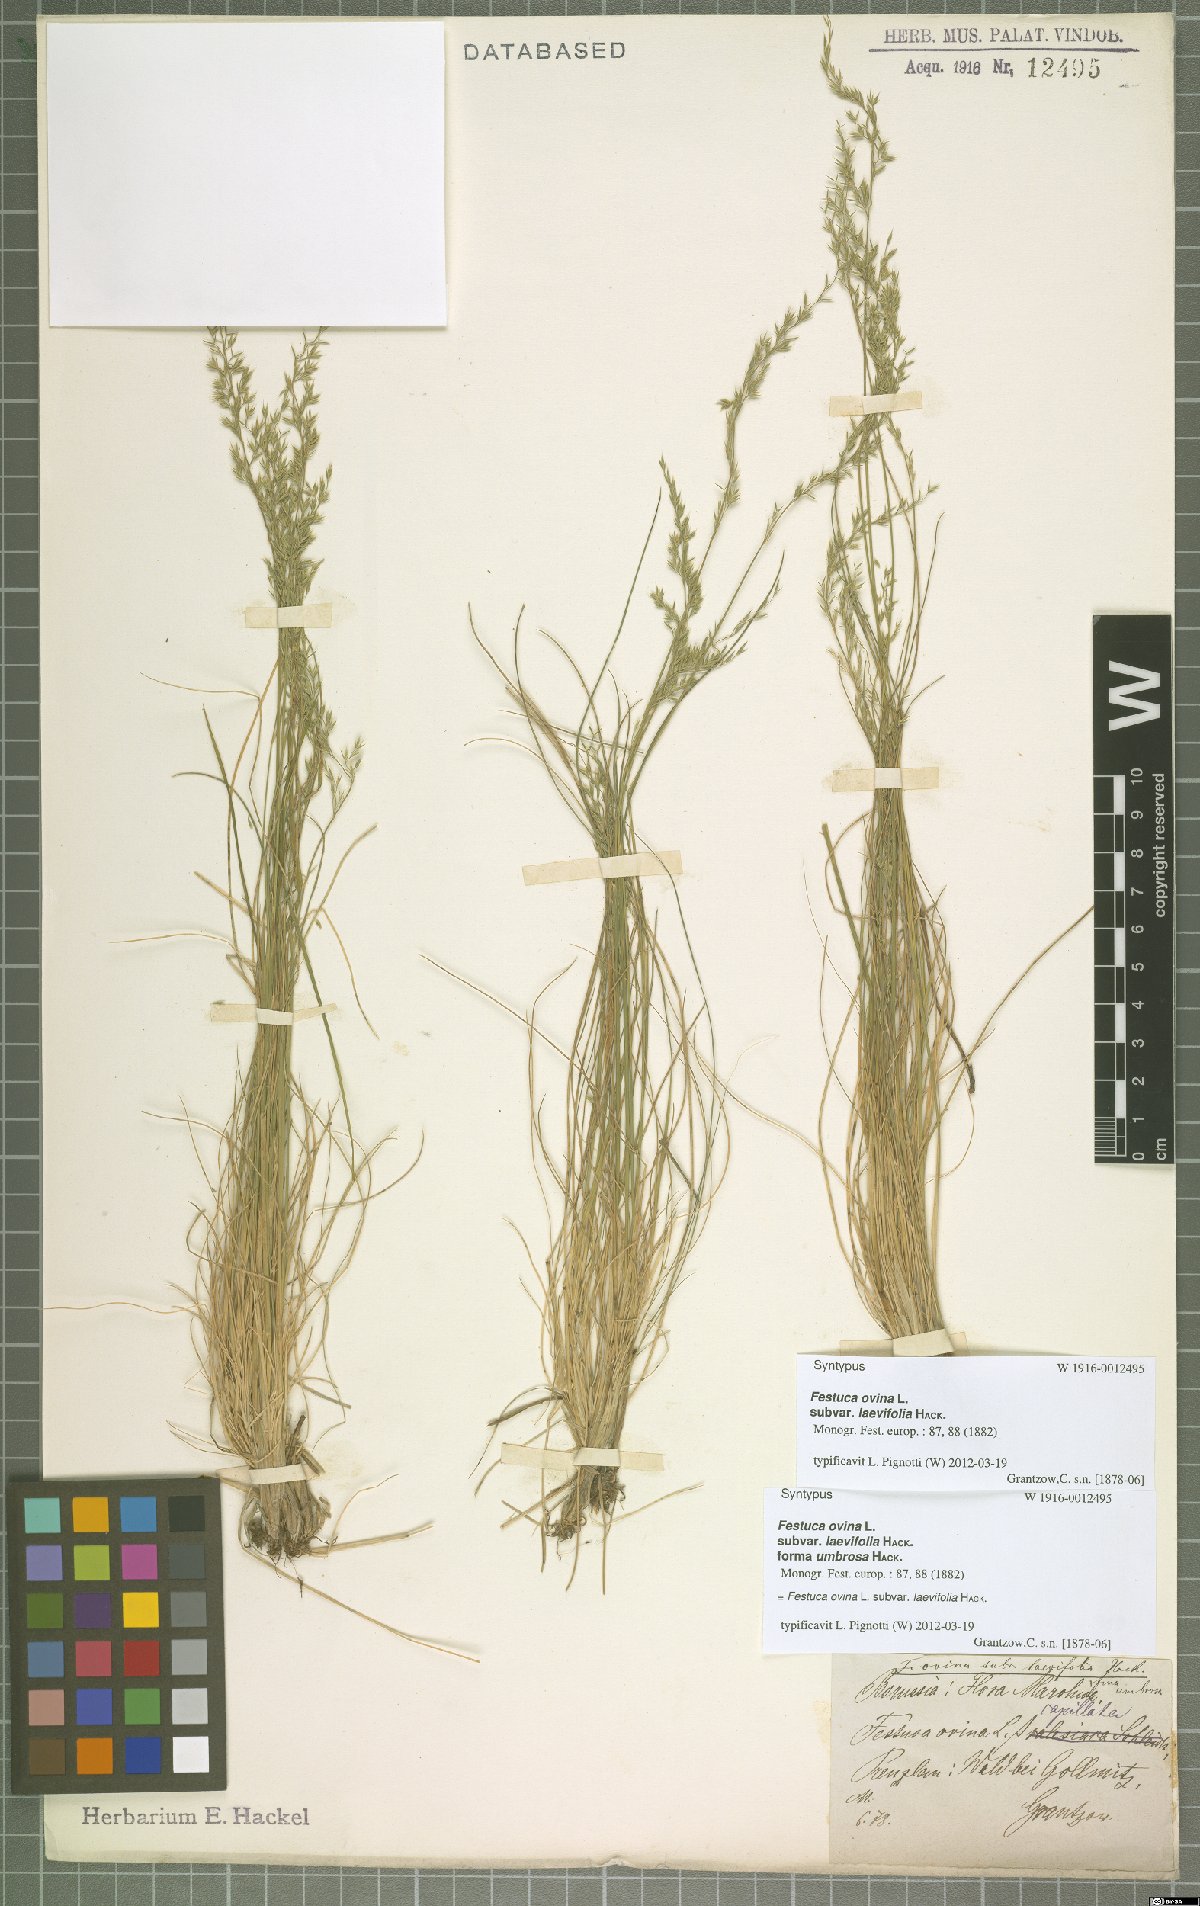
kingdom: Plantae
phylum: Tracheophyta
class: Liliopsida
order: Poales
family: Poaceae
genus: Festuca
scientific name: Festuca ovina
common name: Sheep fescue
